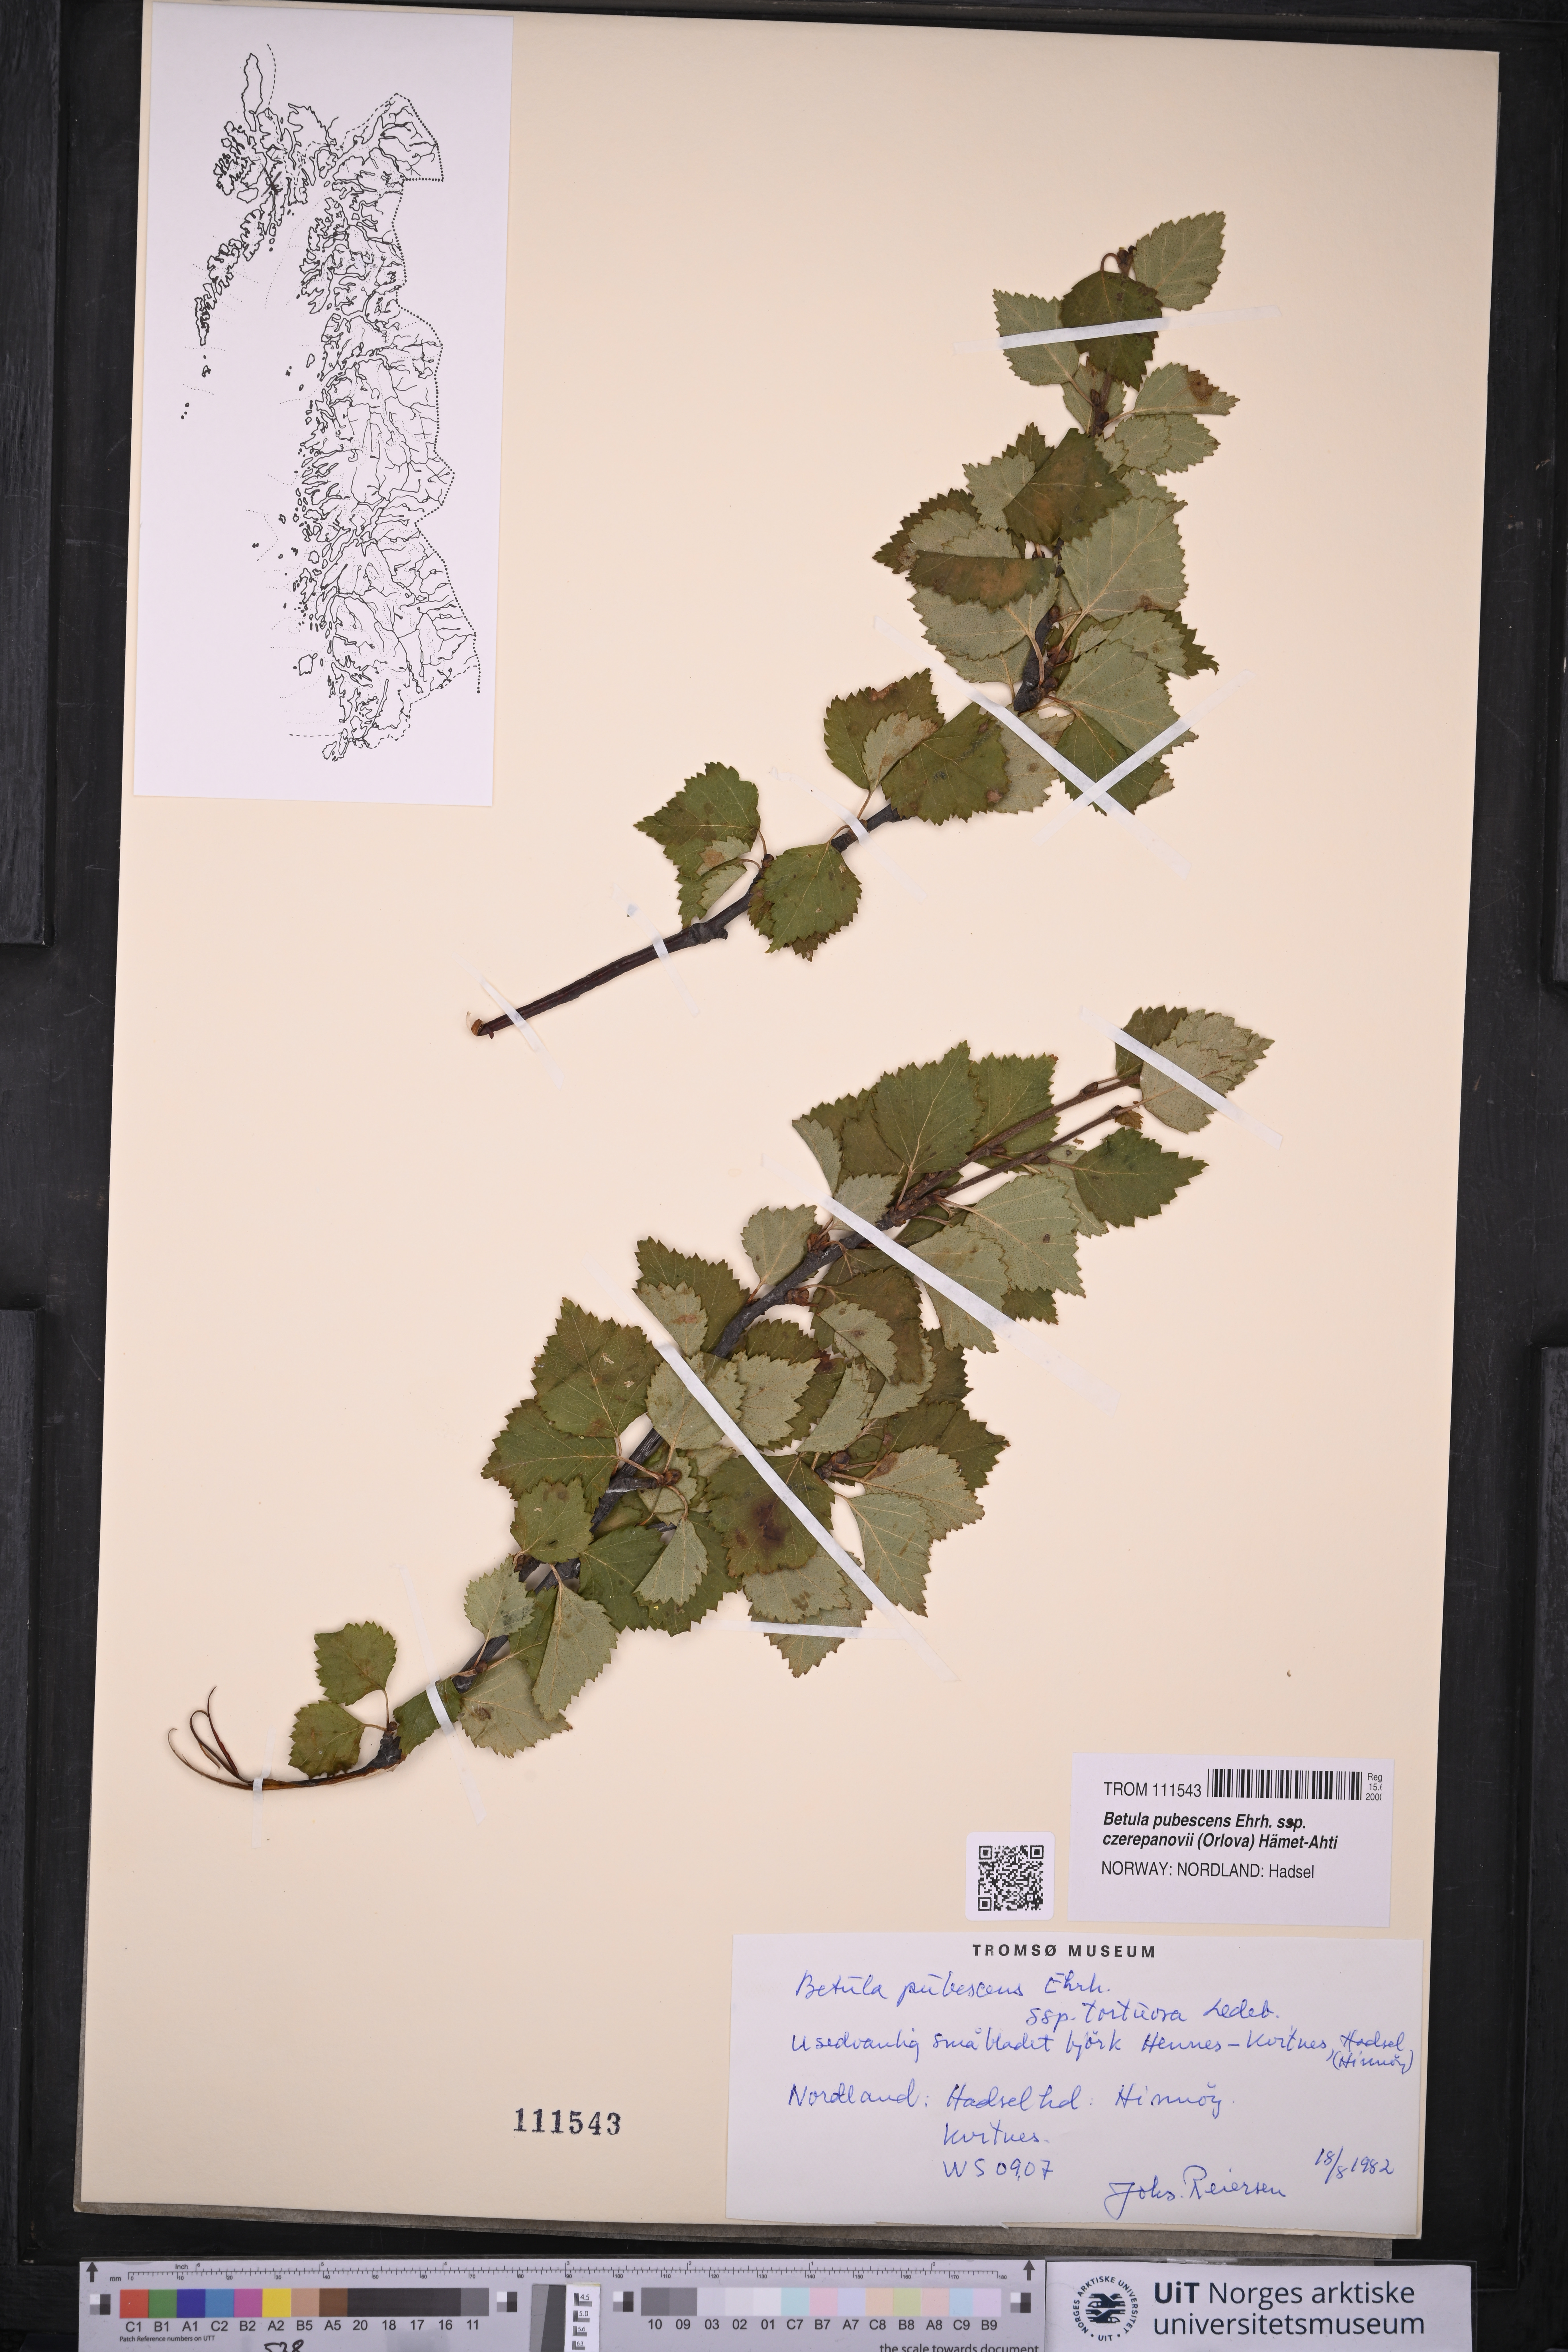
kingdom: Plantae
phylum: Tracheophyta
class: Magnoliopsida
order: Fagales
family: Betulaceae
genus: Betula
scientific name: Betula pubescens
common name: Downy birch
